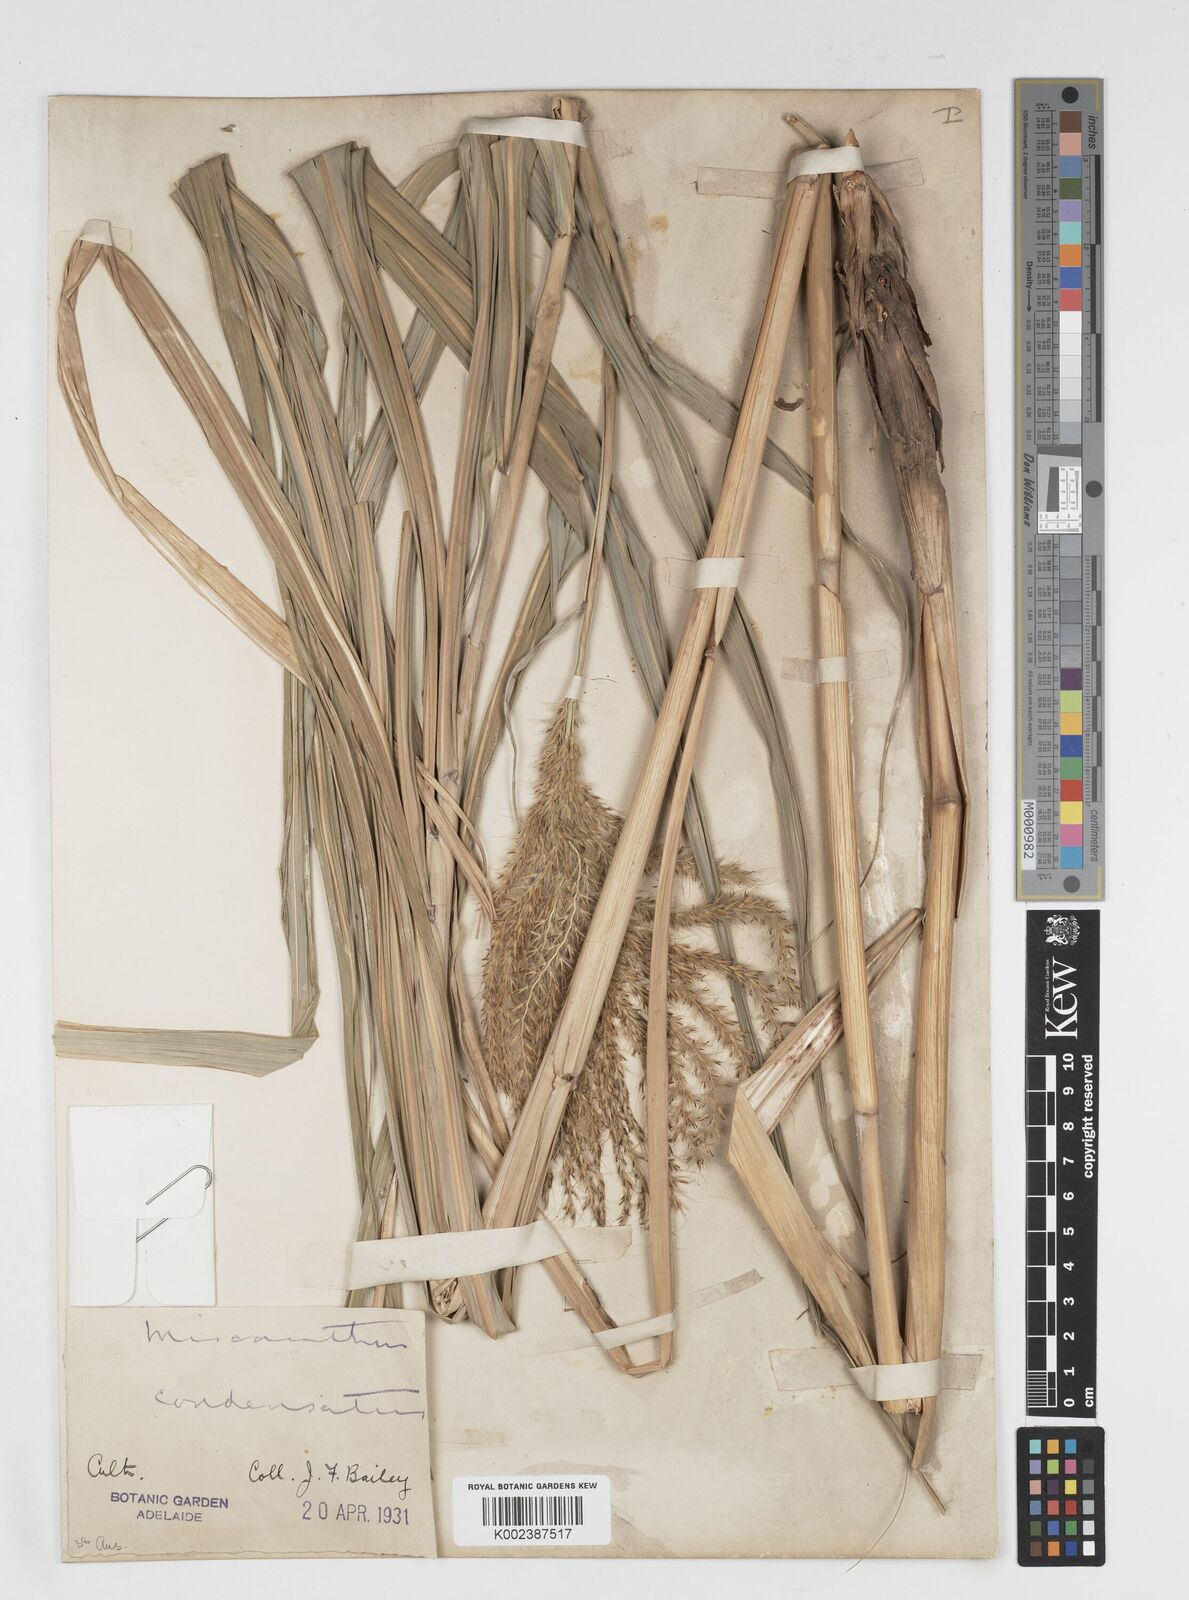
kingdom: Plantae
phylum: Tracheophyta
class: Liliopsida
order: Poales
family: Poaceae
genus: Miscanthus
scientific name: Miscanthus sinensis
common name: Chinese silvergrass
